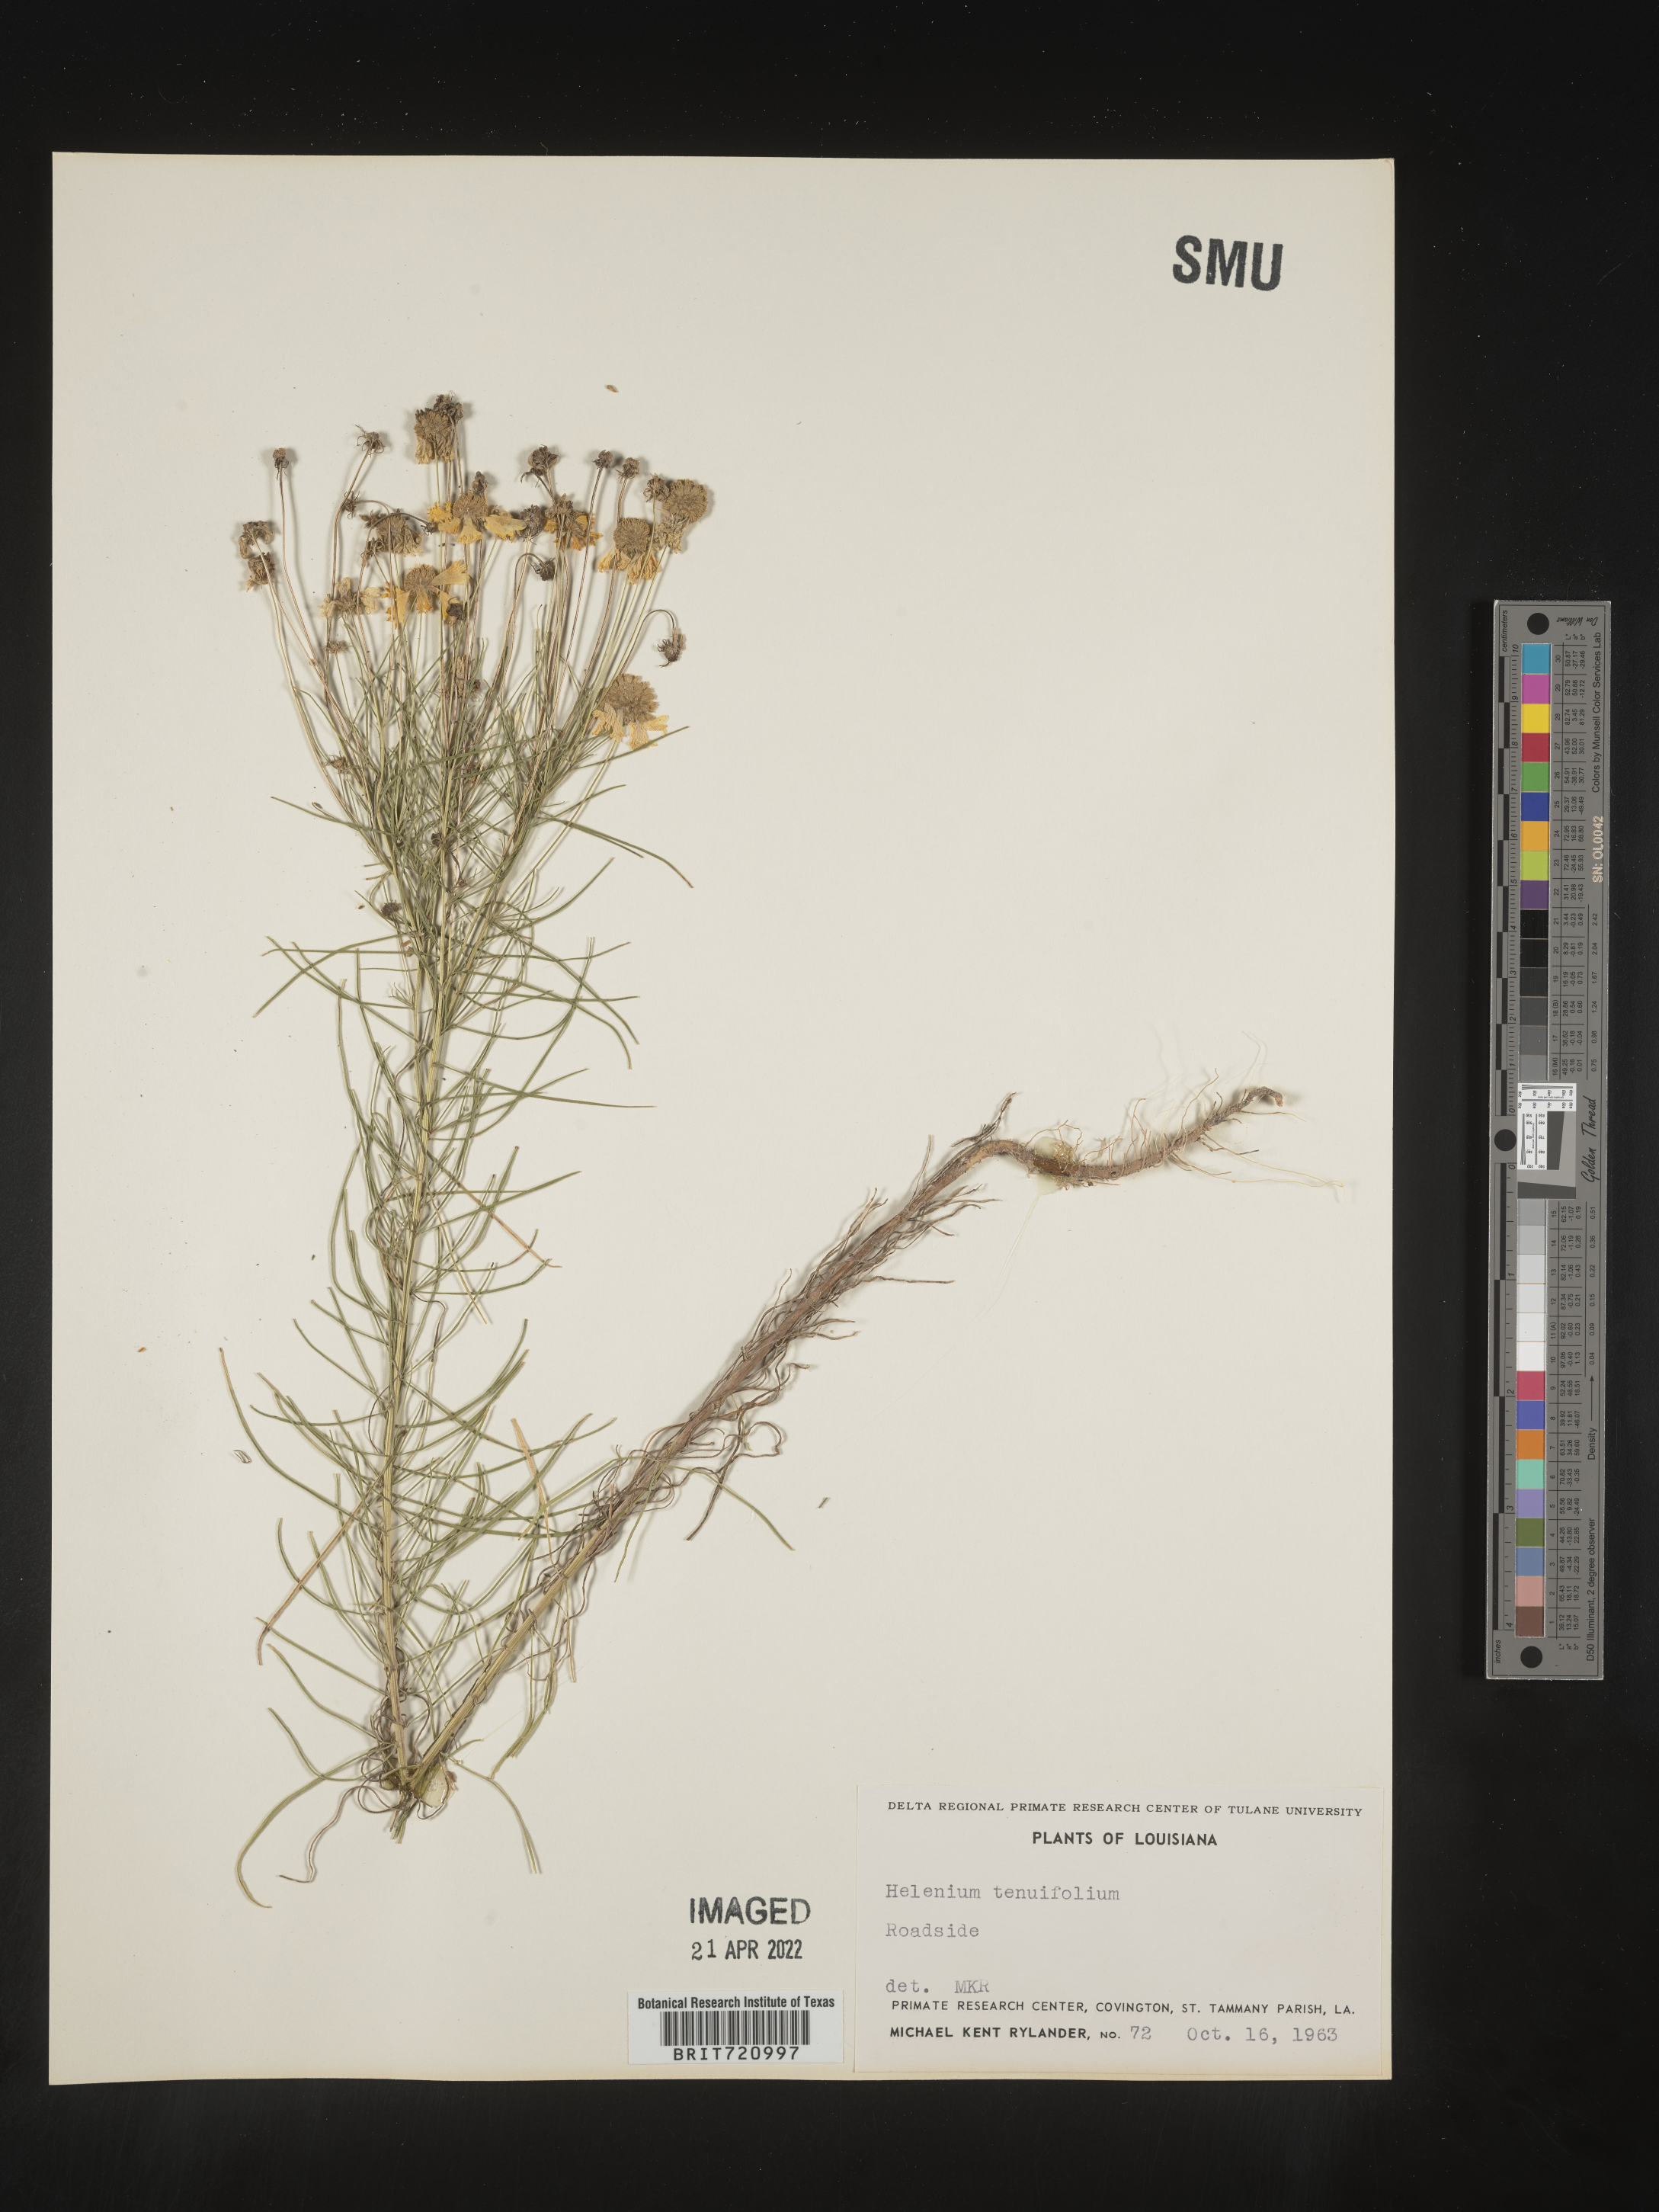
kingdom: Plantae
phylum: Tracheophyta
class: Magnoliopsida
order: Asterales
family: Asteraceae
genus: Helenium
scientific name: Helenium amarum
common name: Bitter sneezeweed
